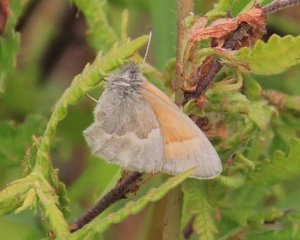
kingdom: Animalia
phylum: Arthropoda
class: Insecta
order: Lepidoptera
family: Nymphalidae
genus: Coenonympha
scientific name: Coenonympha tullia
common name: Large Heath
